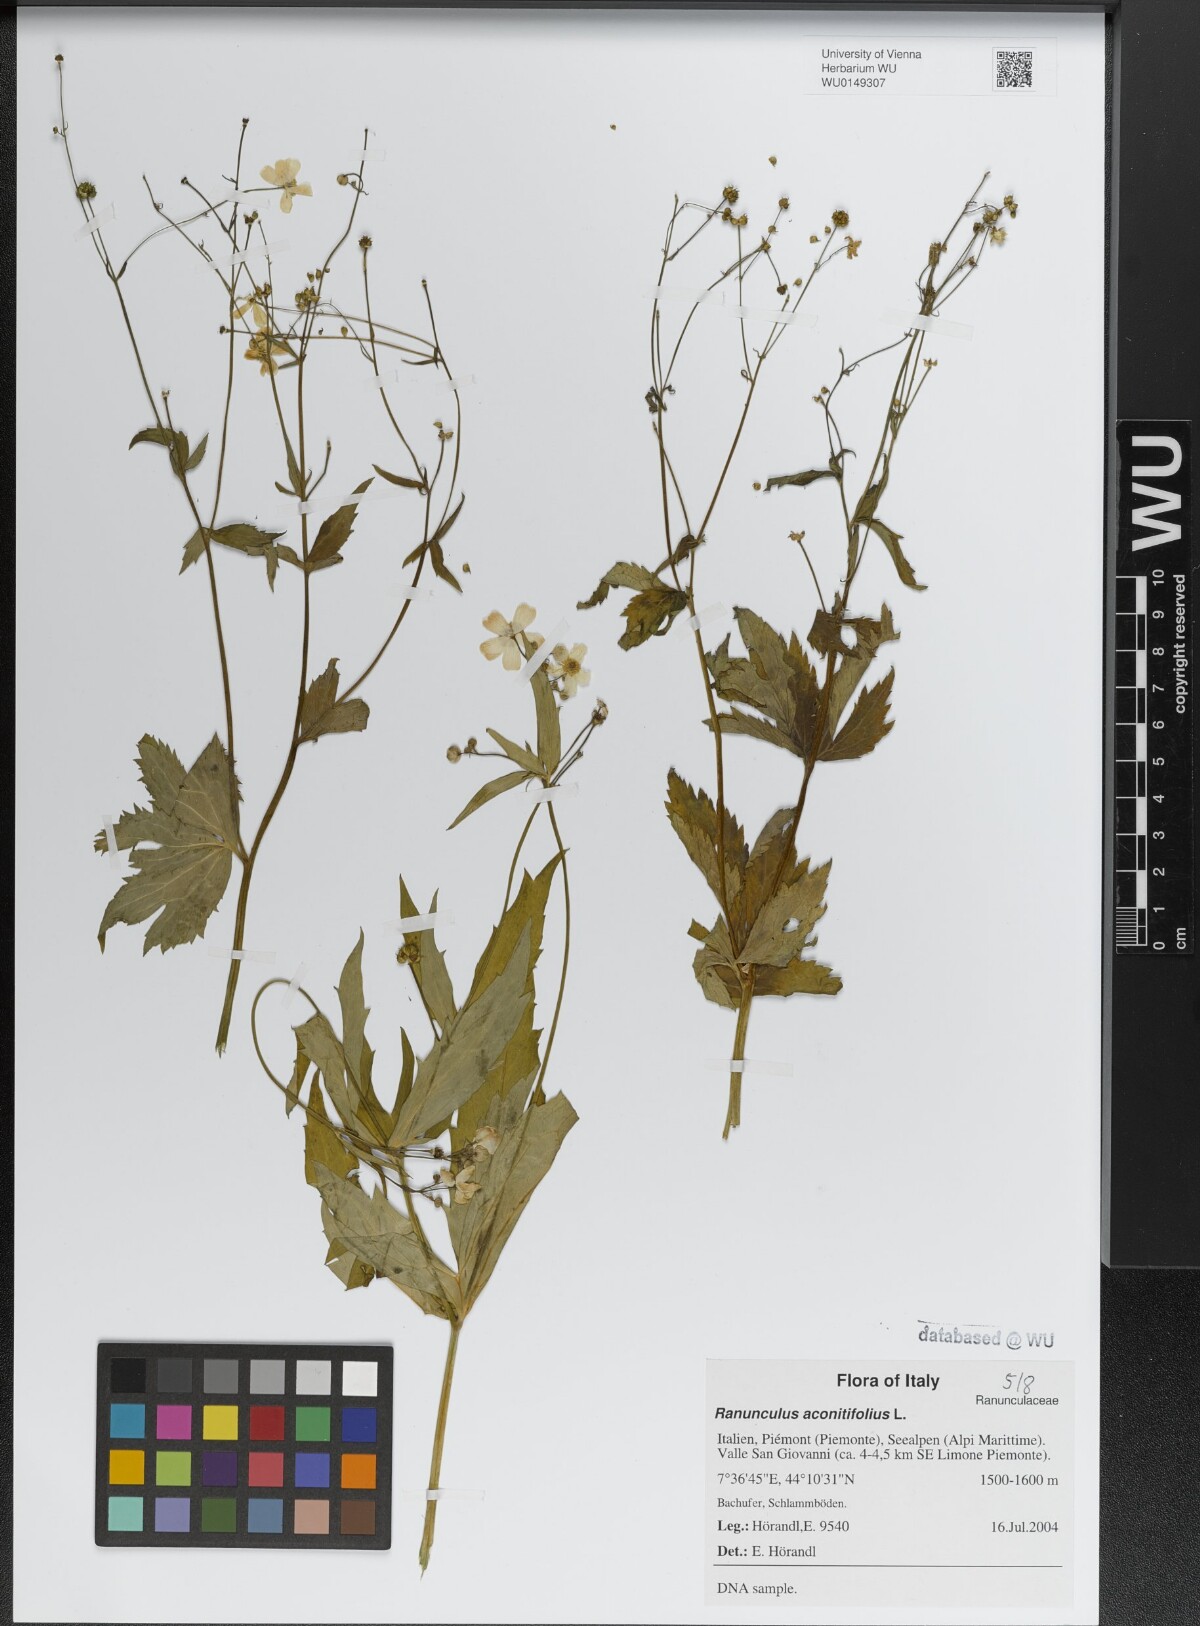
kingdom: Plantae
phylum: Tracheophyta
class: Magnoliopsida
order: Ranunculales
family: Ranunculaceae
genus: Ranunculus
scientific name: Ranunculus aconitifolius
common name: Aconite-leaved buttercup
